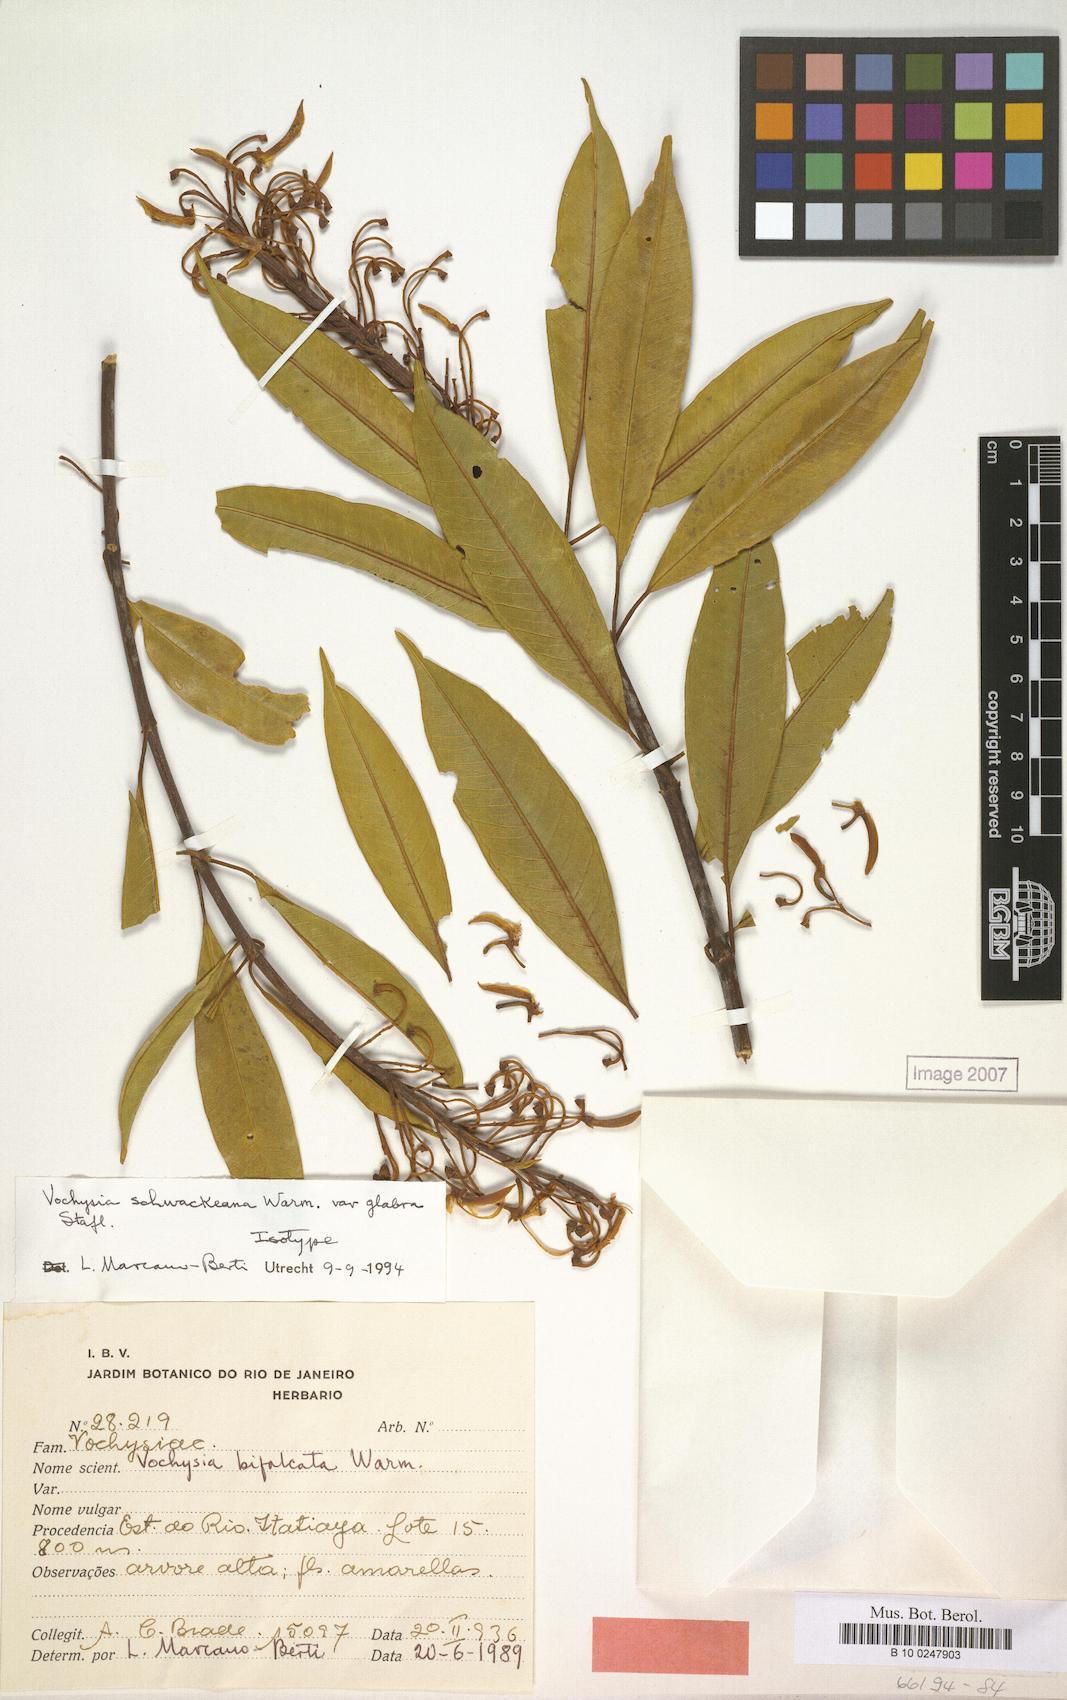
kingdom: Plantae
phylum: Tracheophyta
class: Magnoliopsida
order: Myrtales
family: Vochysiaceae
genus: Vochysia
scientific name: Vochysia schwackeana
